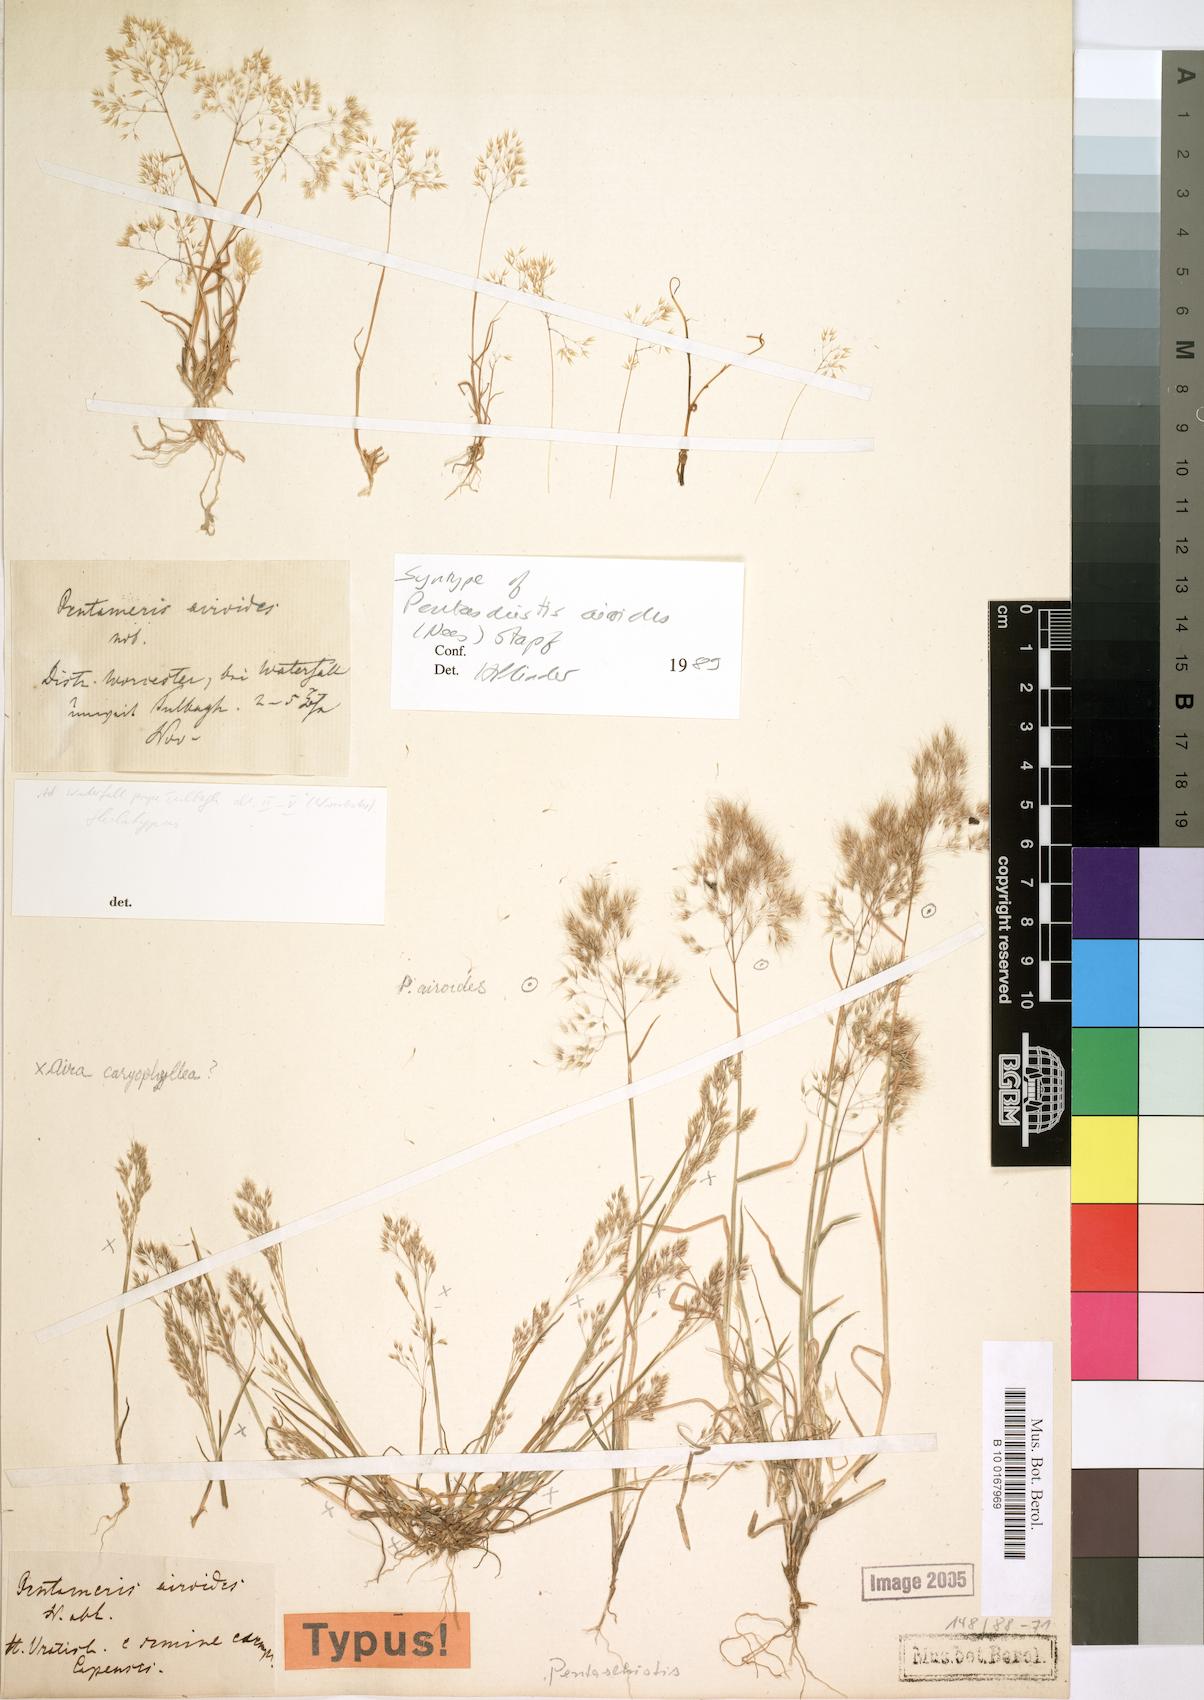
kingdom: Plantae
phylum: Tracheophyta
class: Liliopsida
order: Poales
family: Poaceae
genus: Pentameris
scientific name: Pentameris airoides
